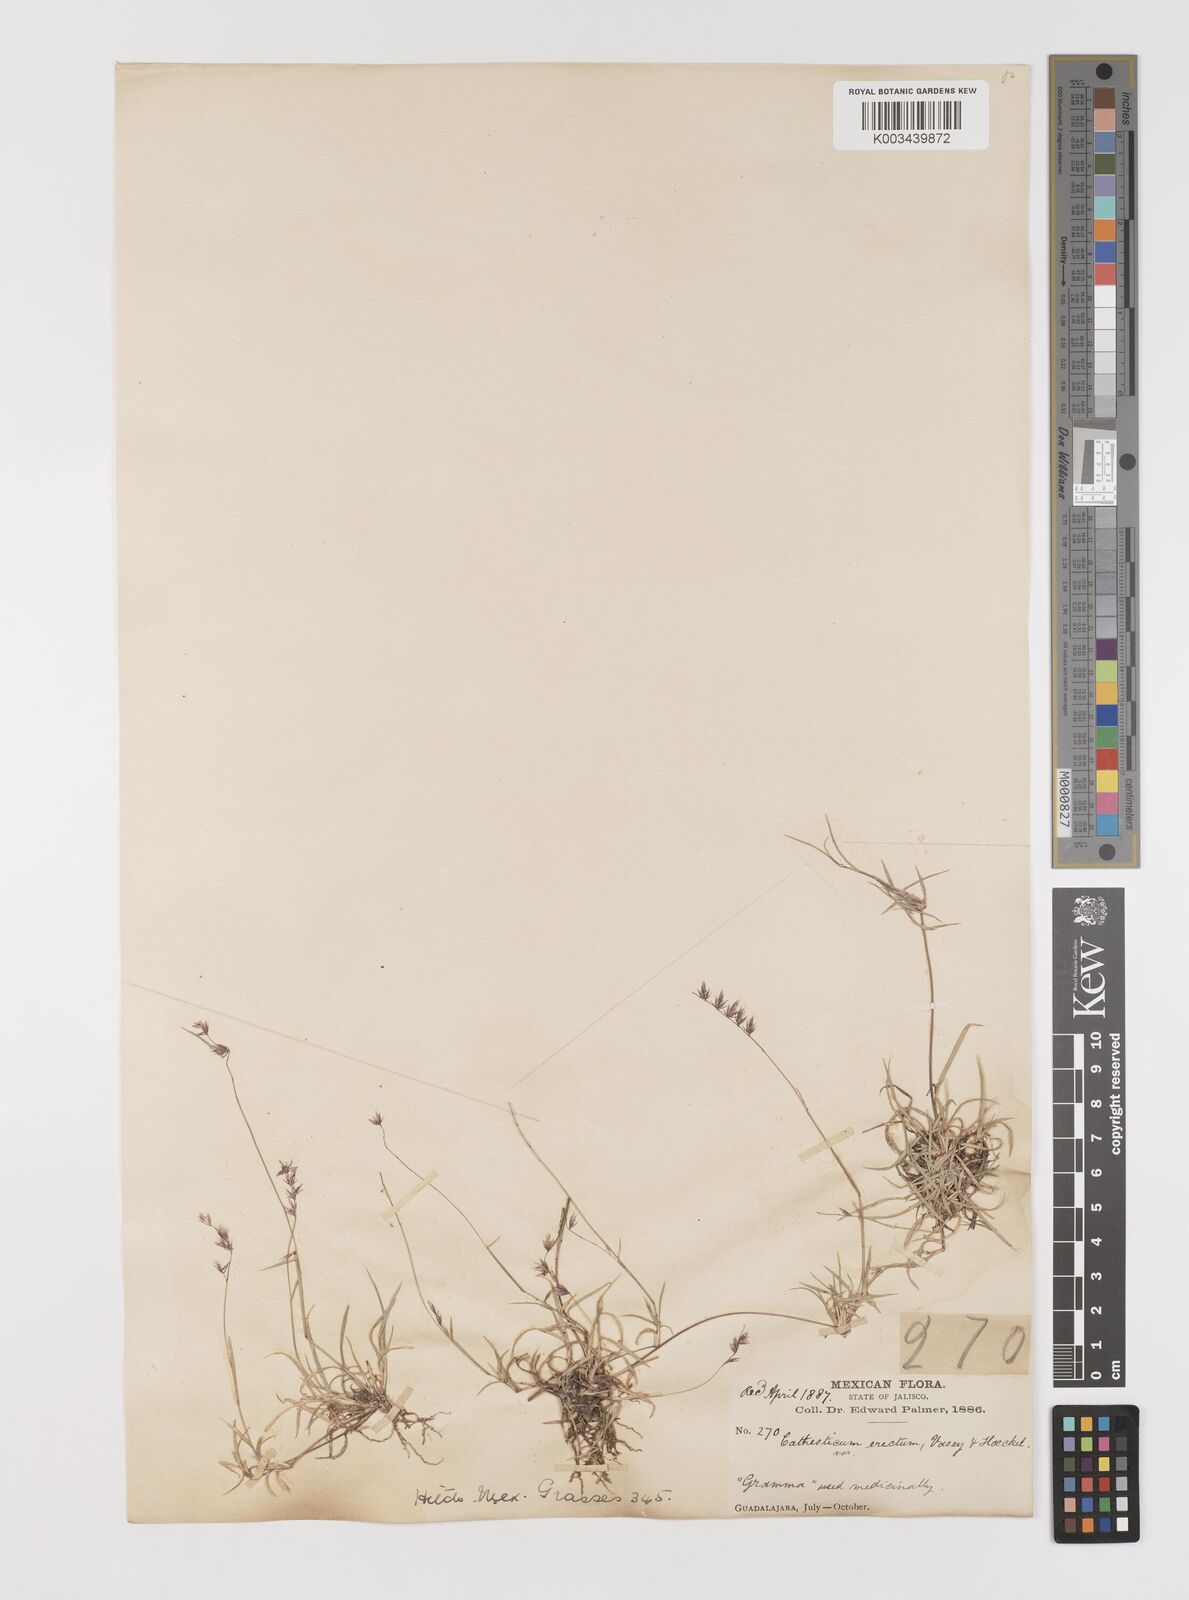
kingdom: Plantae
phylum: Tracheophyta
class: Liliopsida
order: Poales
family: Poaceae
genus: Bouteloua
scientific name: Bouteloua diversispicula
